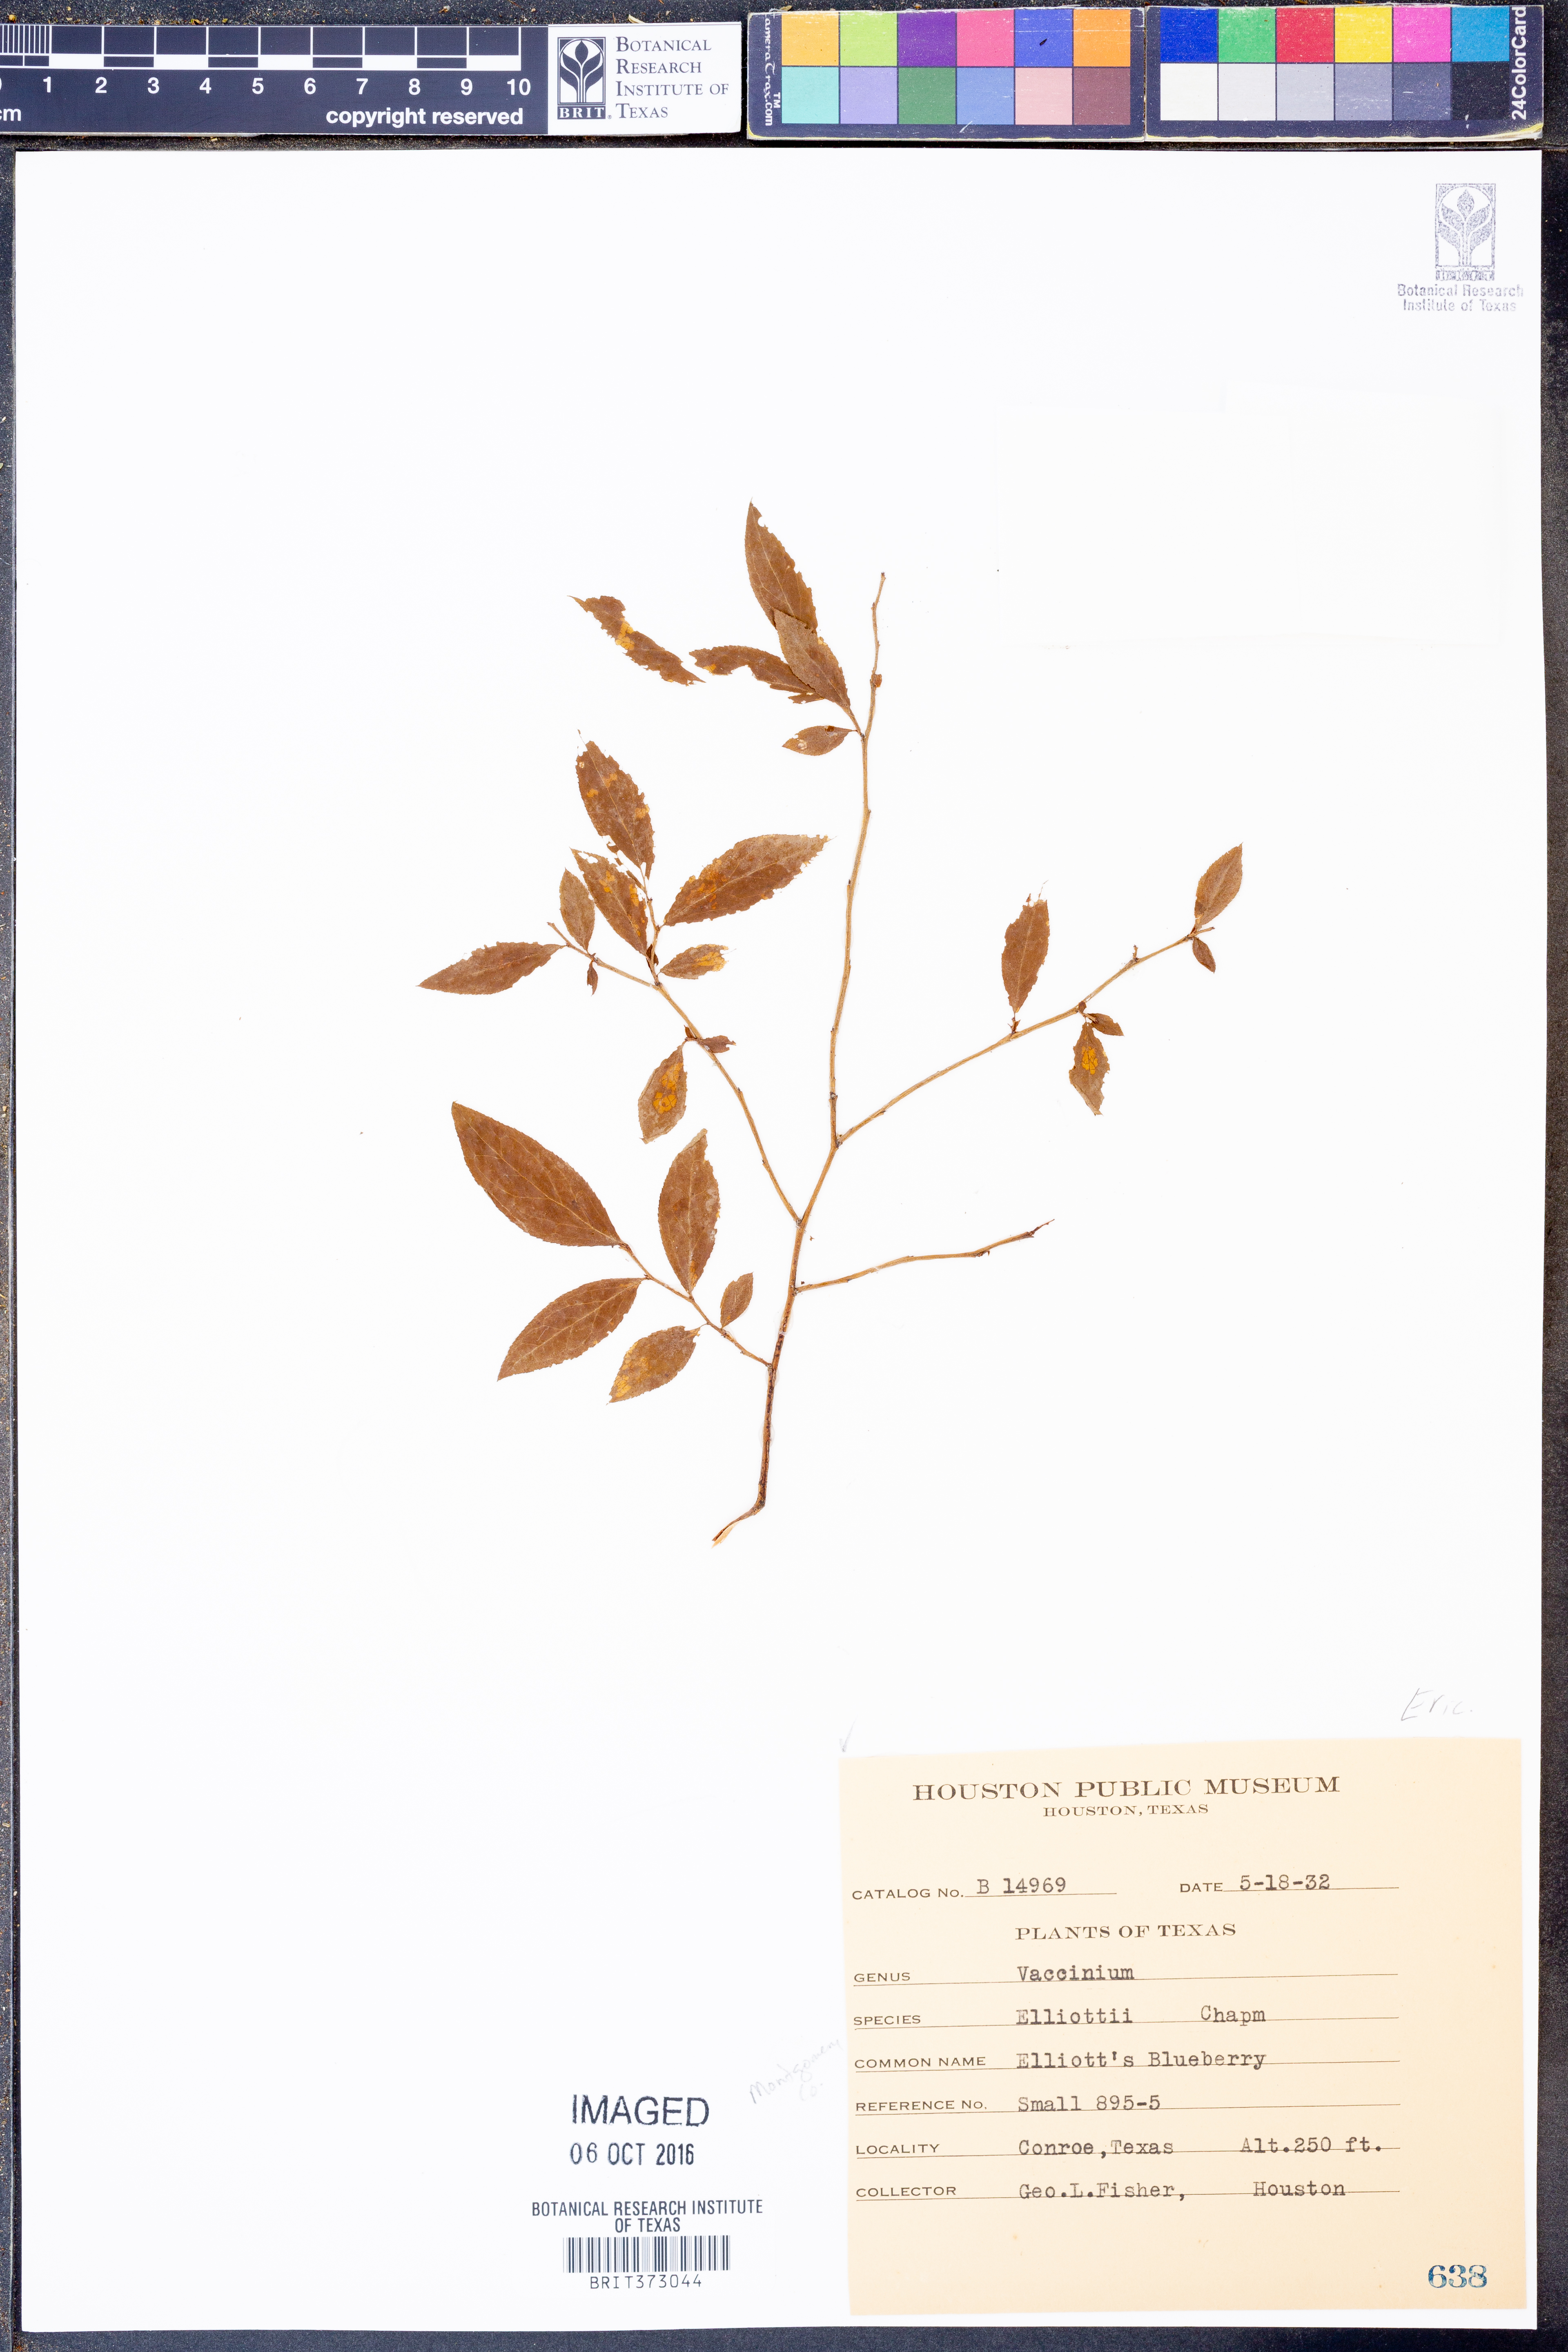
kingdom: Plantae
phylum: Tracheophyta
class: Magnoliopsida
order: Ericales
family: Ericaceae
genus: Vaccinium
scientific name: Vaccinium corymbosum
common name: Blueberry
